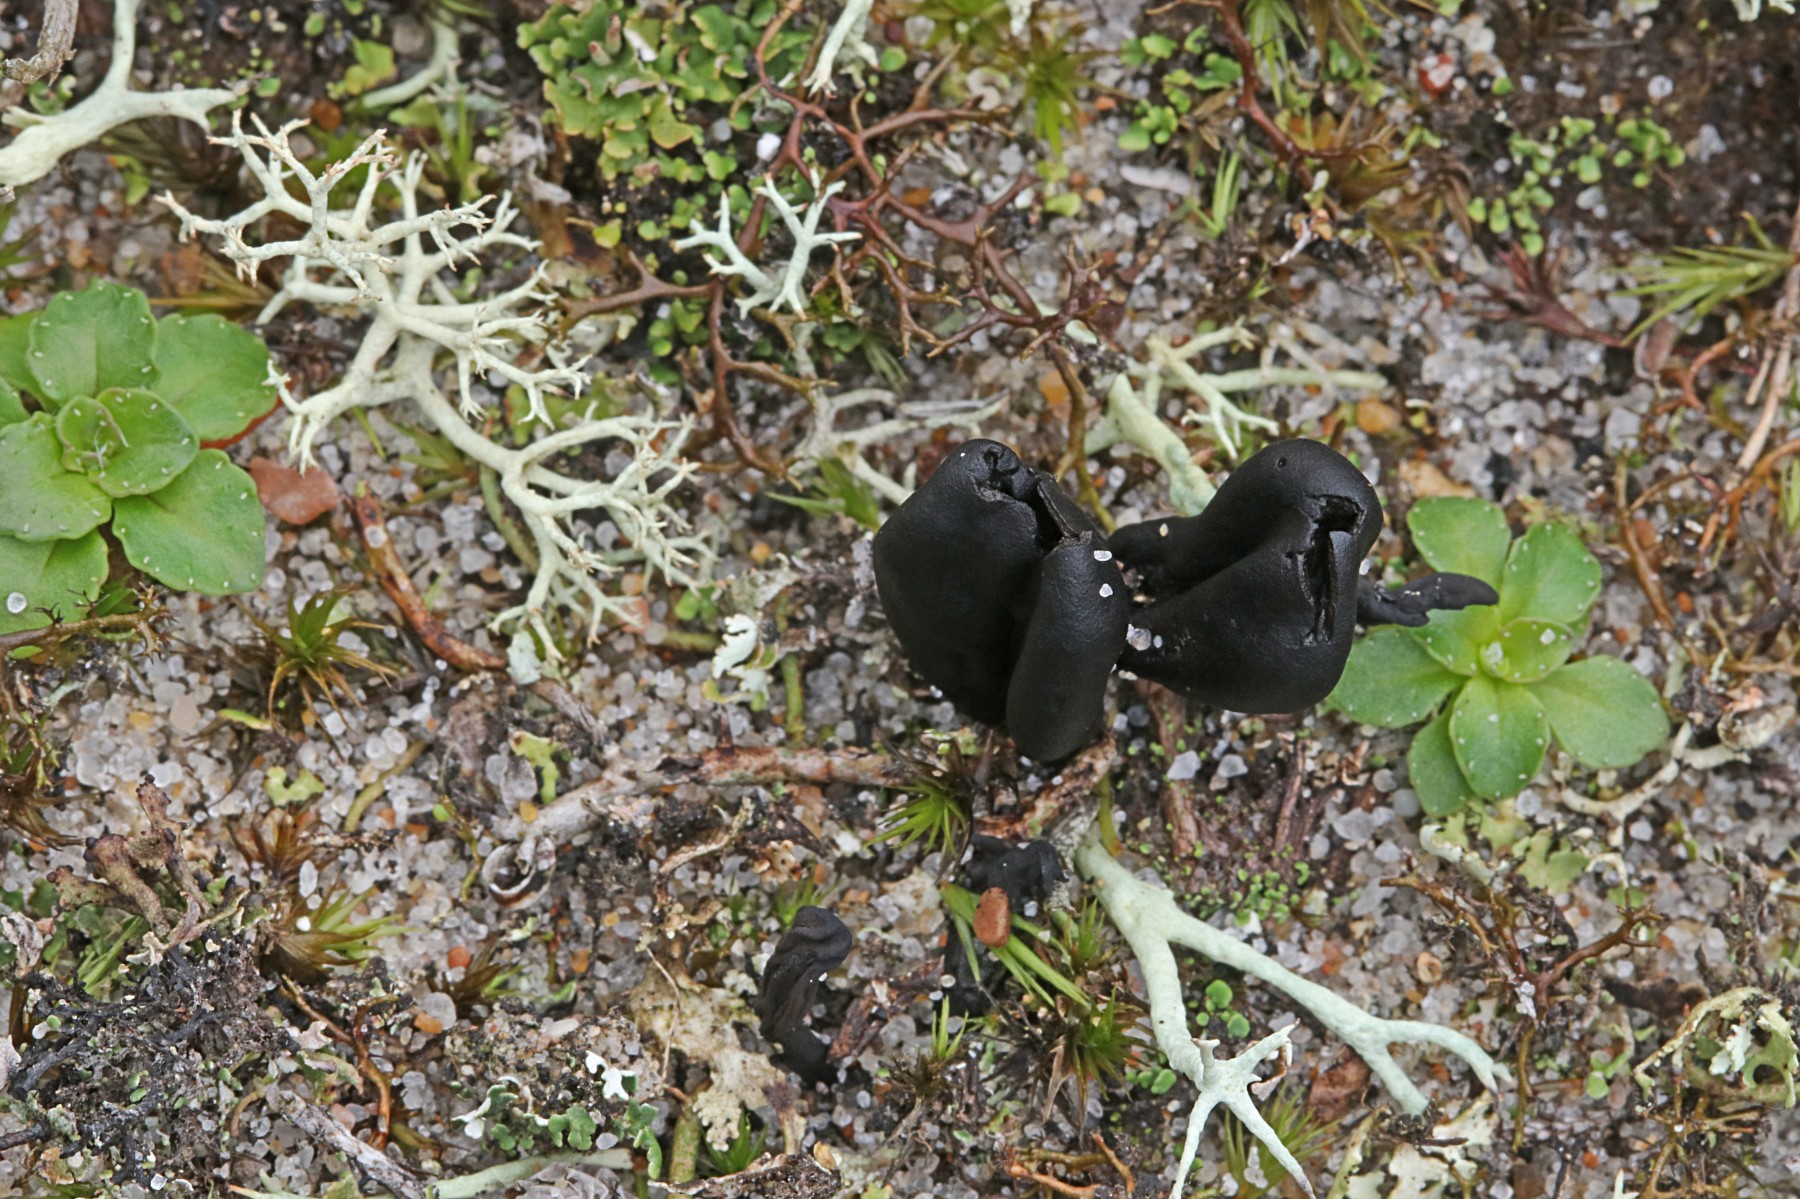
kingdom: Fungi
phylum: Ascomycota
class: Geoglossomycetes
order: Geoglossales
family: Geoglossaceae
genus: Sabuloglossum
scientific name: Sabuloglossum arenarium
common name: klit-jordtunge
